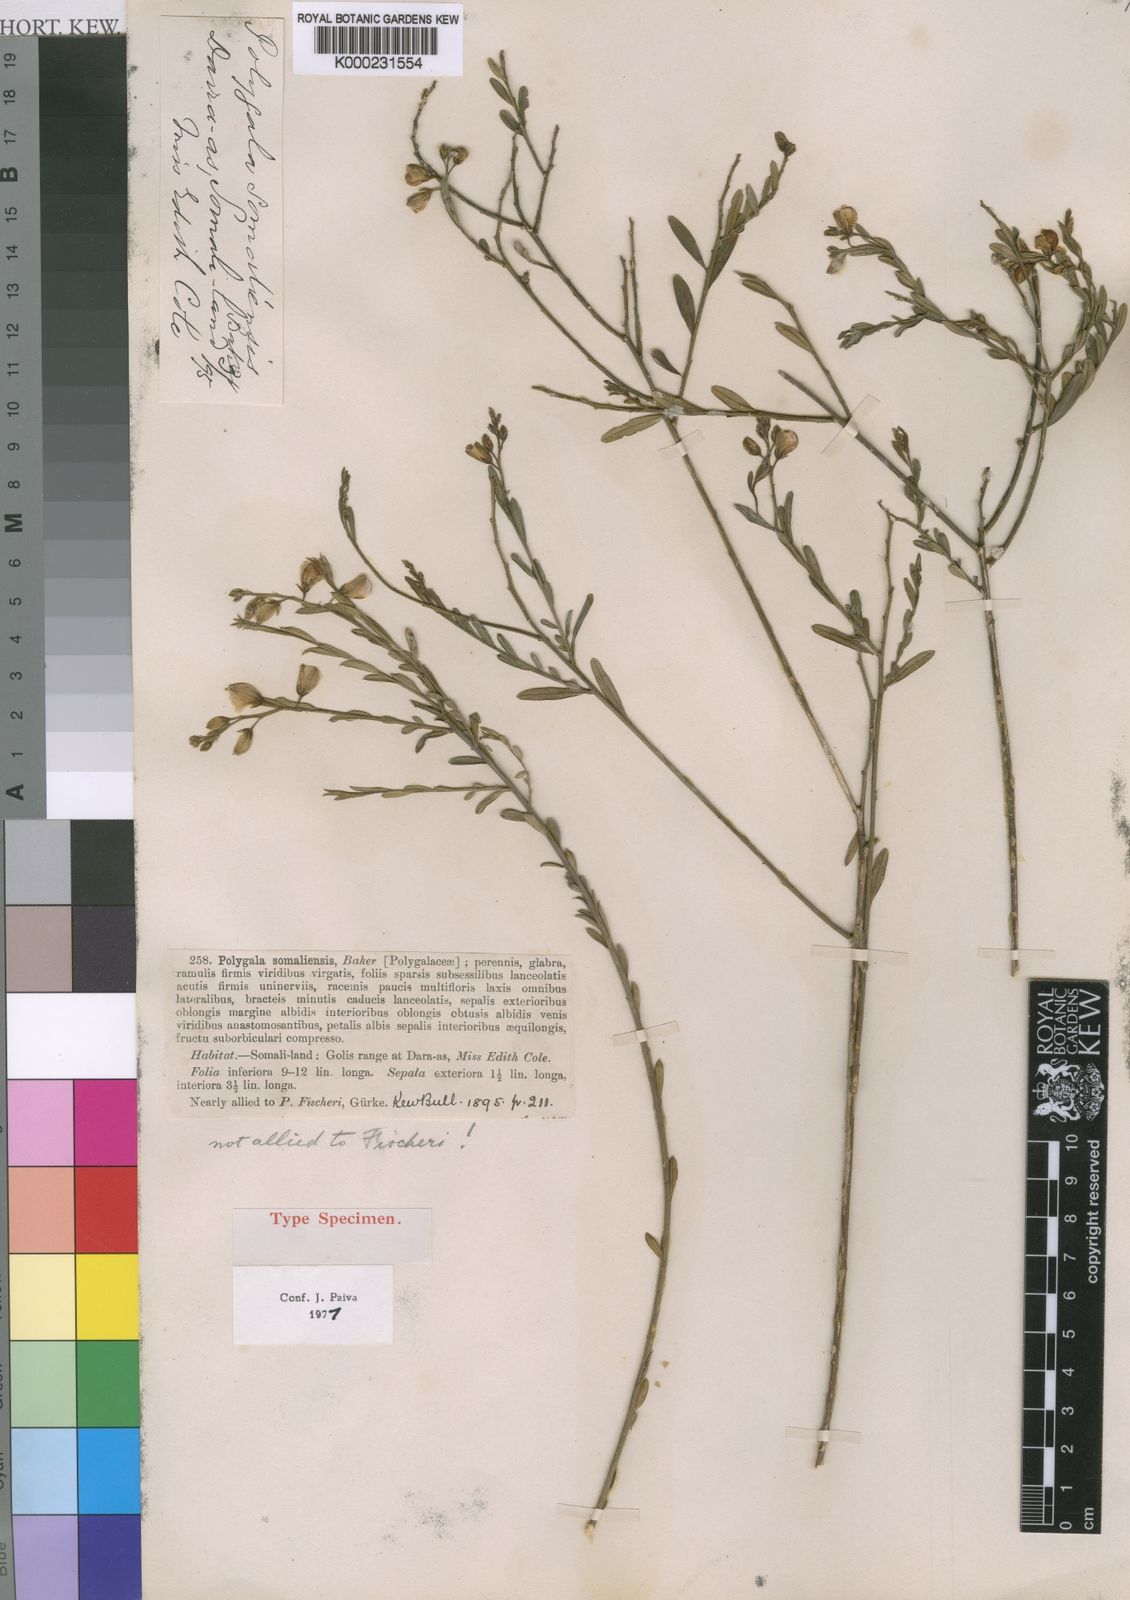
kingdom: Plantae
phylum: Tracheophyta
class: Magnoliopsida
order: Fabales
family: Polygalaceae
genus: Polygala
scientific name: Polygala somaliensis
